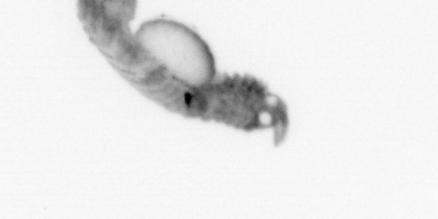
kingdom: Animalia
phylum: Annelida
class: Polychaeta
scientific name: Polychaeta
